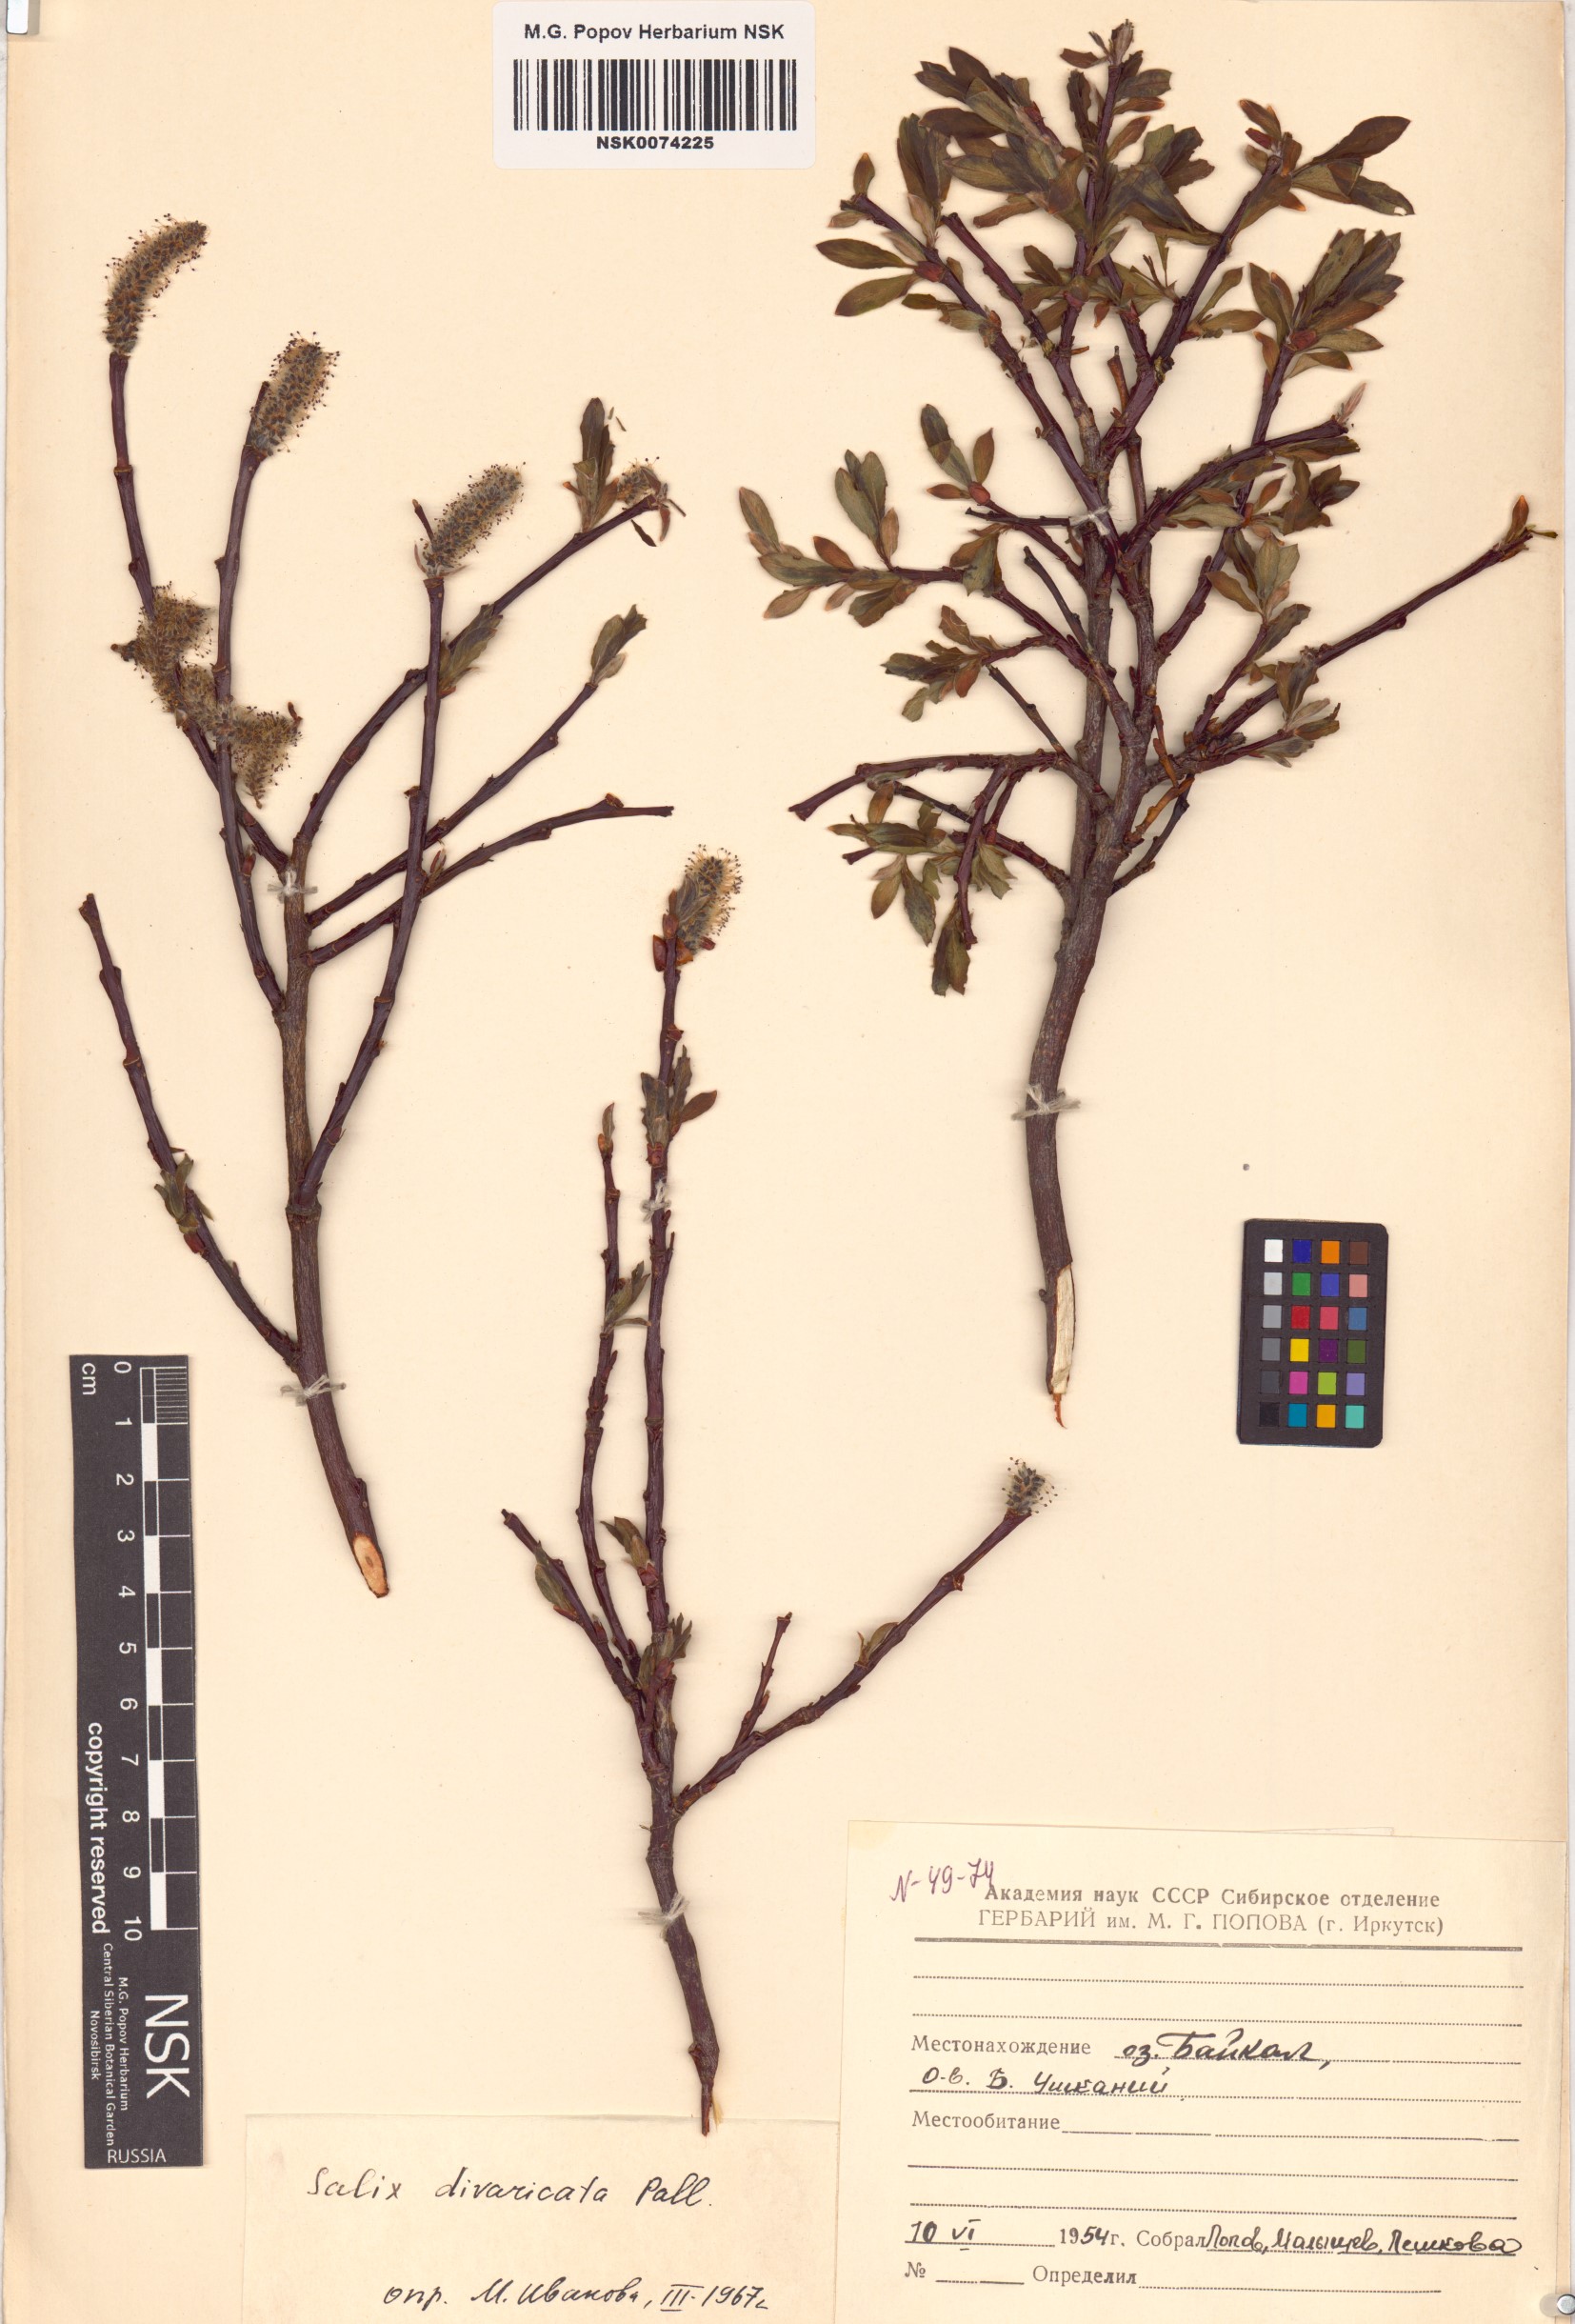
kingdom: Plantae
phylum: Tracheophyta
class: Magnoliopsida
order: Malpighiales
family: Salicaceae
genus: Salix
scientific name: Salix divaricata
